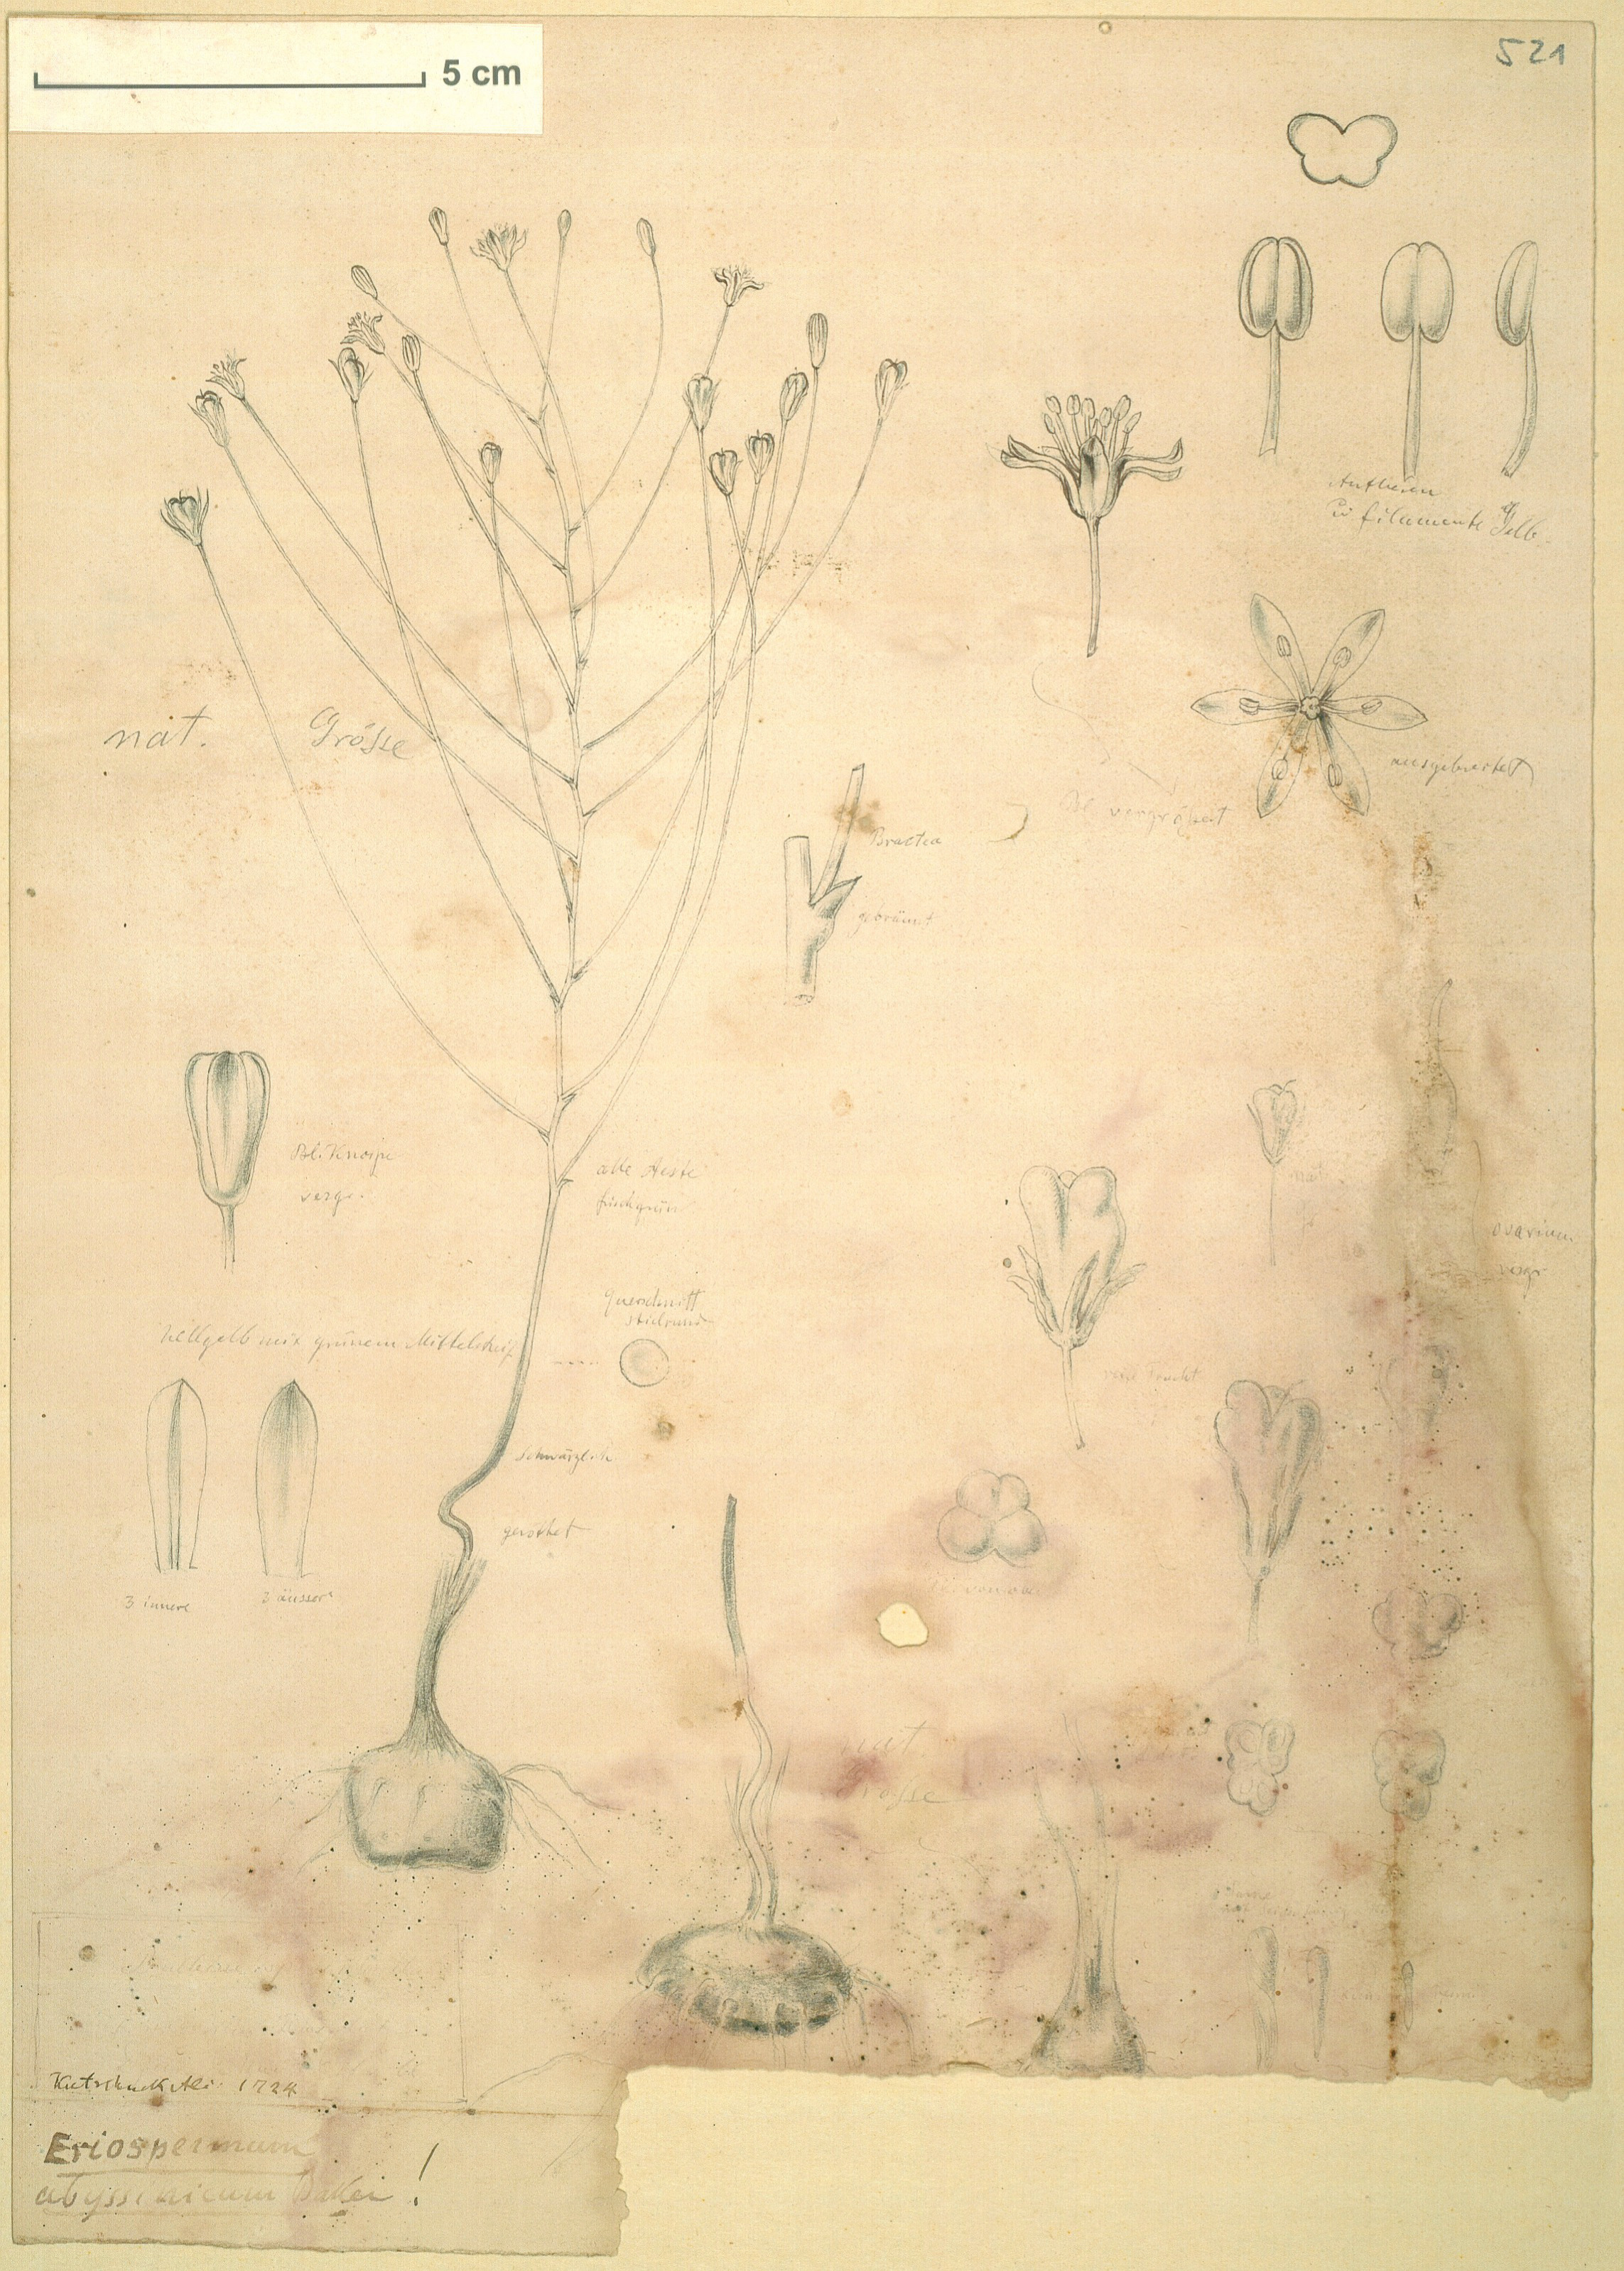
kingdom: Plantae
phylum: Tracheophyta
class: Liliopsida
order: Asparagales
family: Asparagaceae
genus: Eriospermum
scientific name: Eriospermum abyssinicum
